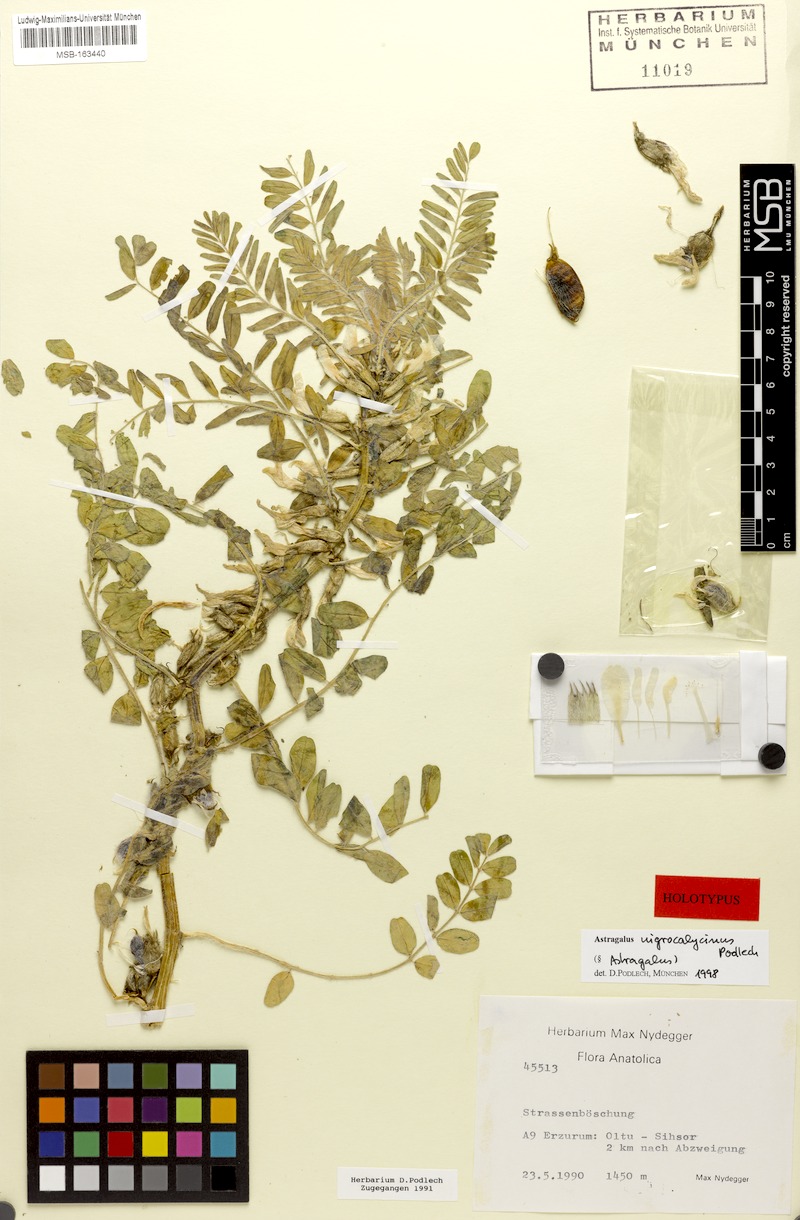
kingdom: Plantae
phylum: Tracheophyta
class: Magnoliopsida
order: Fabales
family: Fabaceae
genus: Astragalus
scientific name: Astragalus nigrocalycinus
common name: Black-calyx milk vetch
